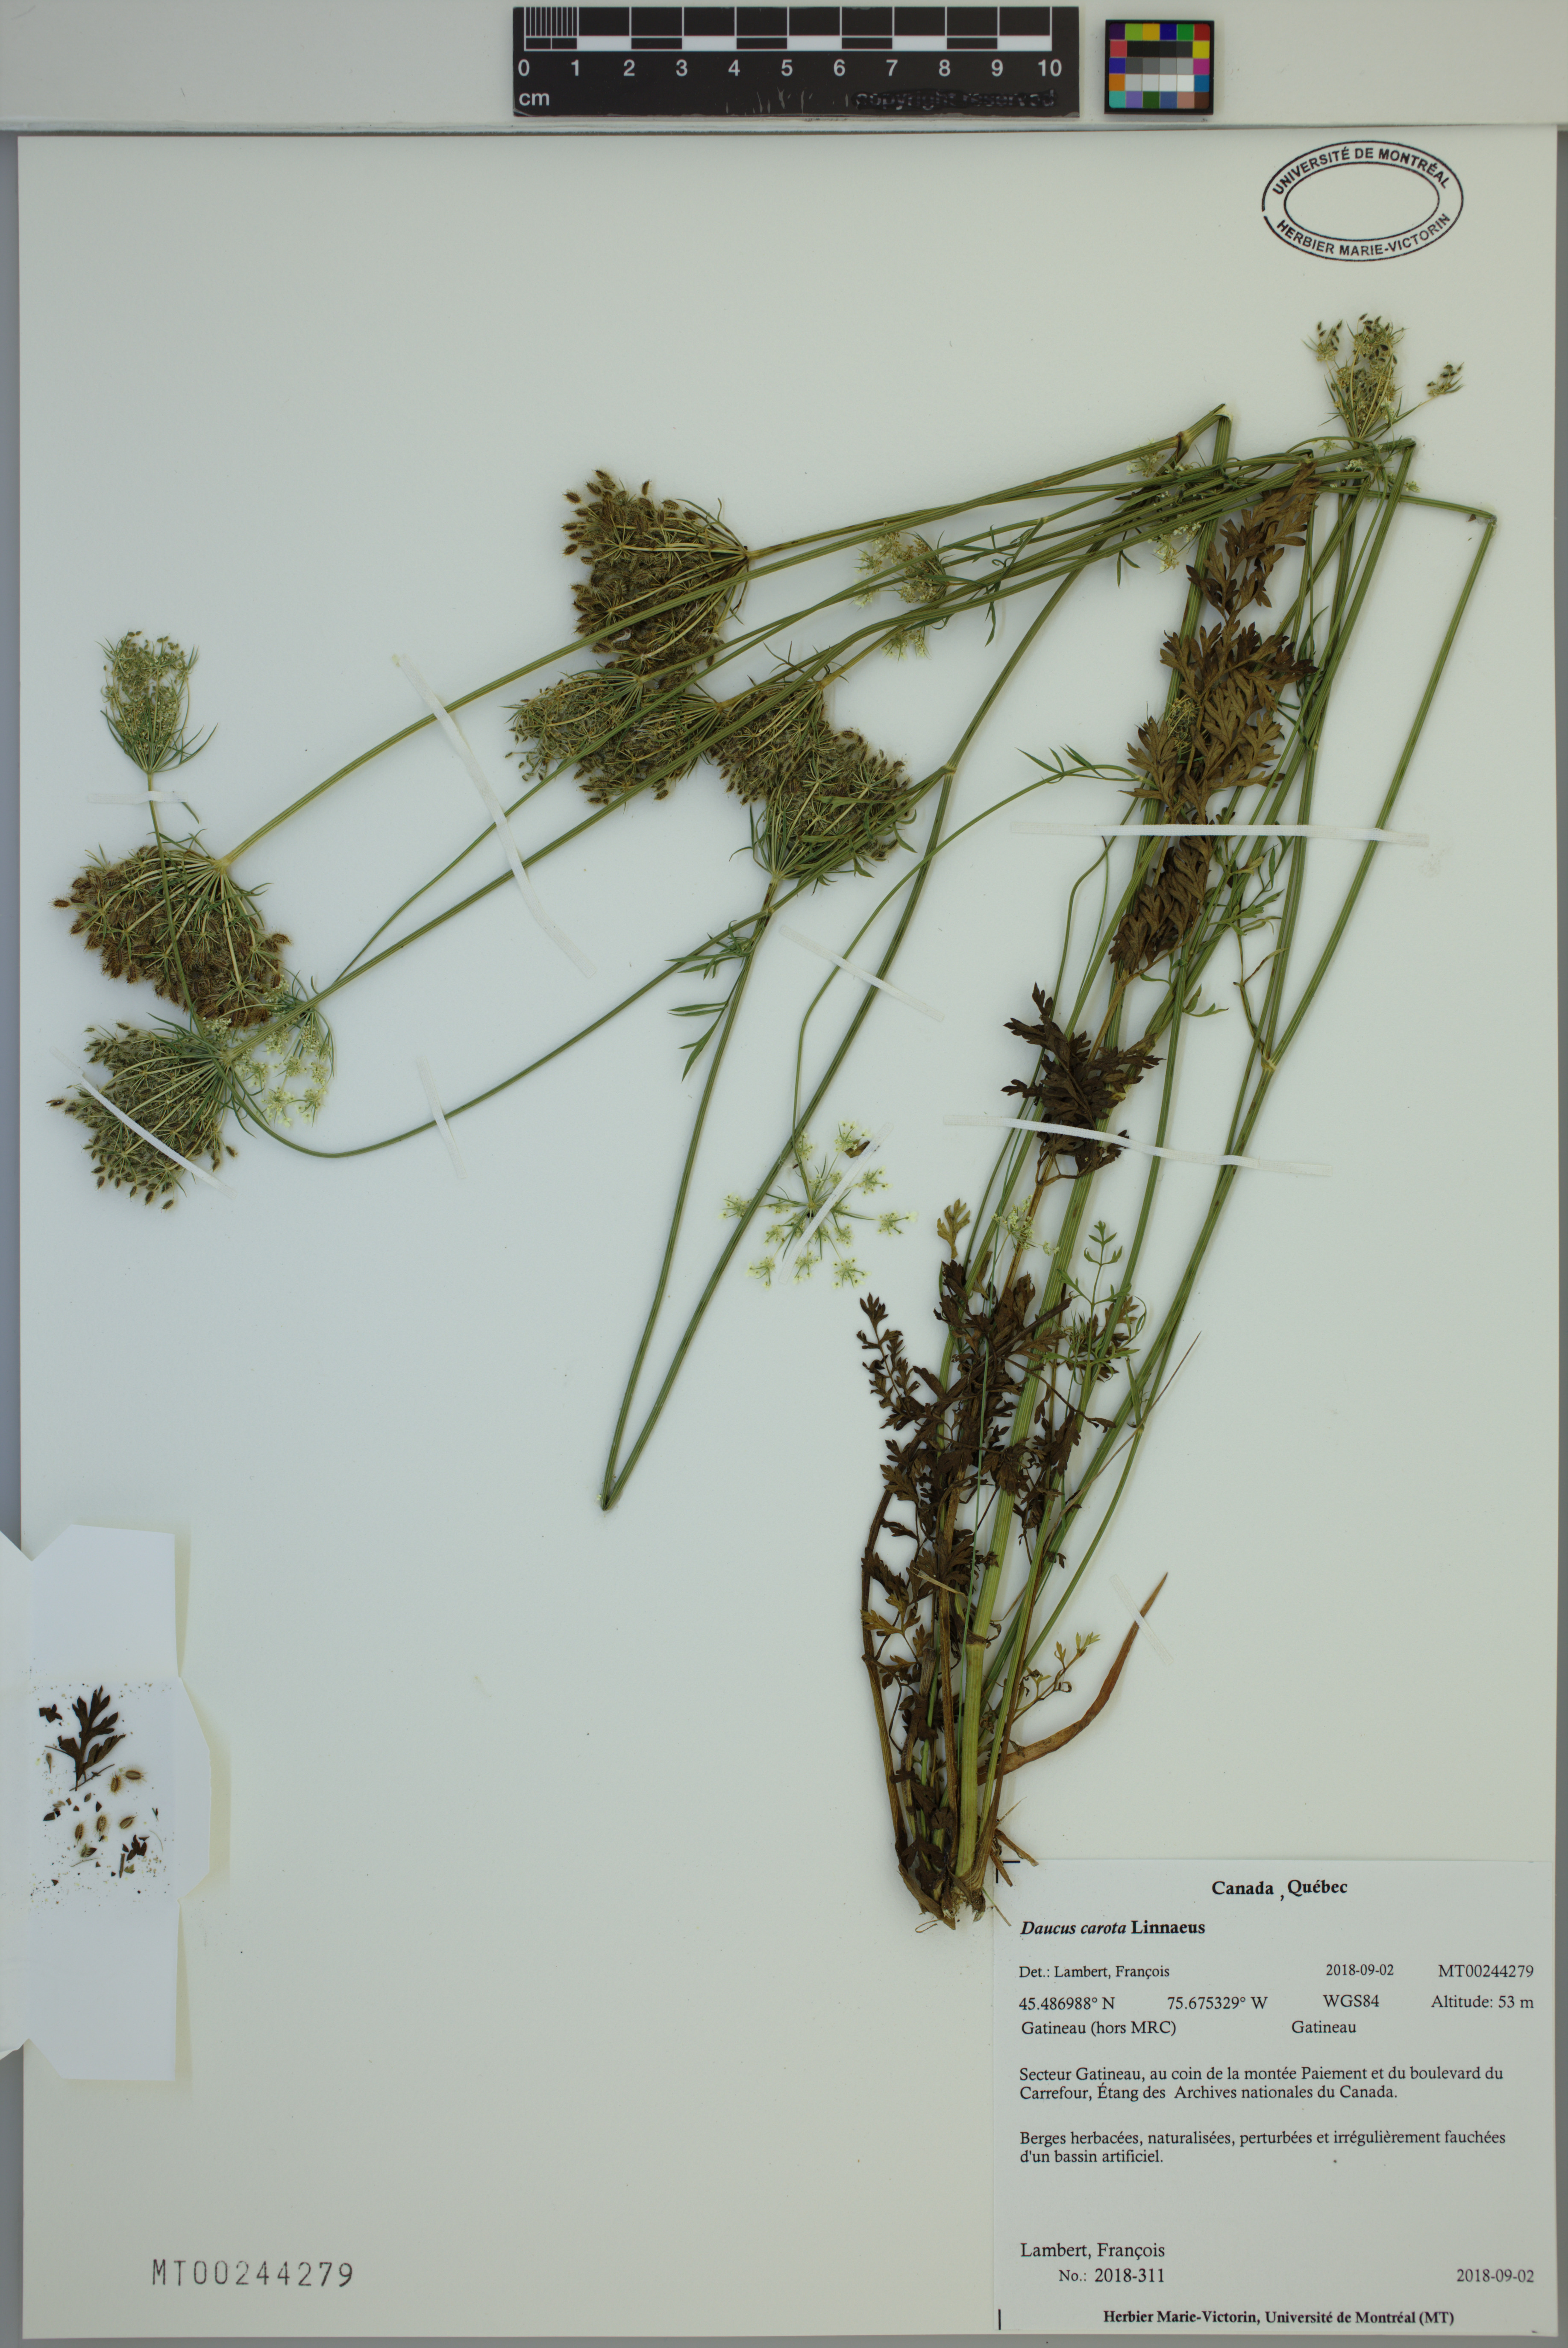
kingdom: Plantae
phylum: Tracheophyta
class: Magnoliopsida
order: Apiales
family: Apiaceae
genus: Daucus
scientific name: Daucus carota
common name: Wild carrot
